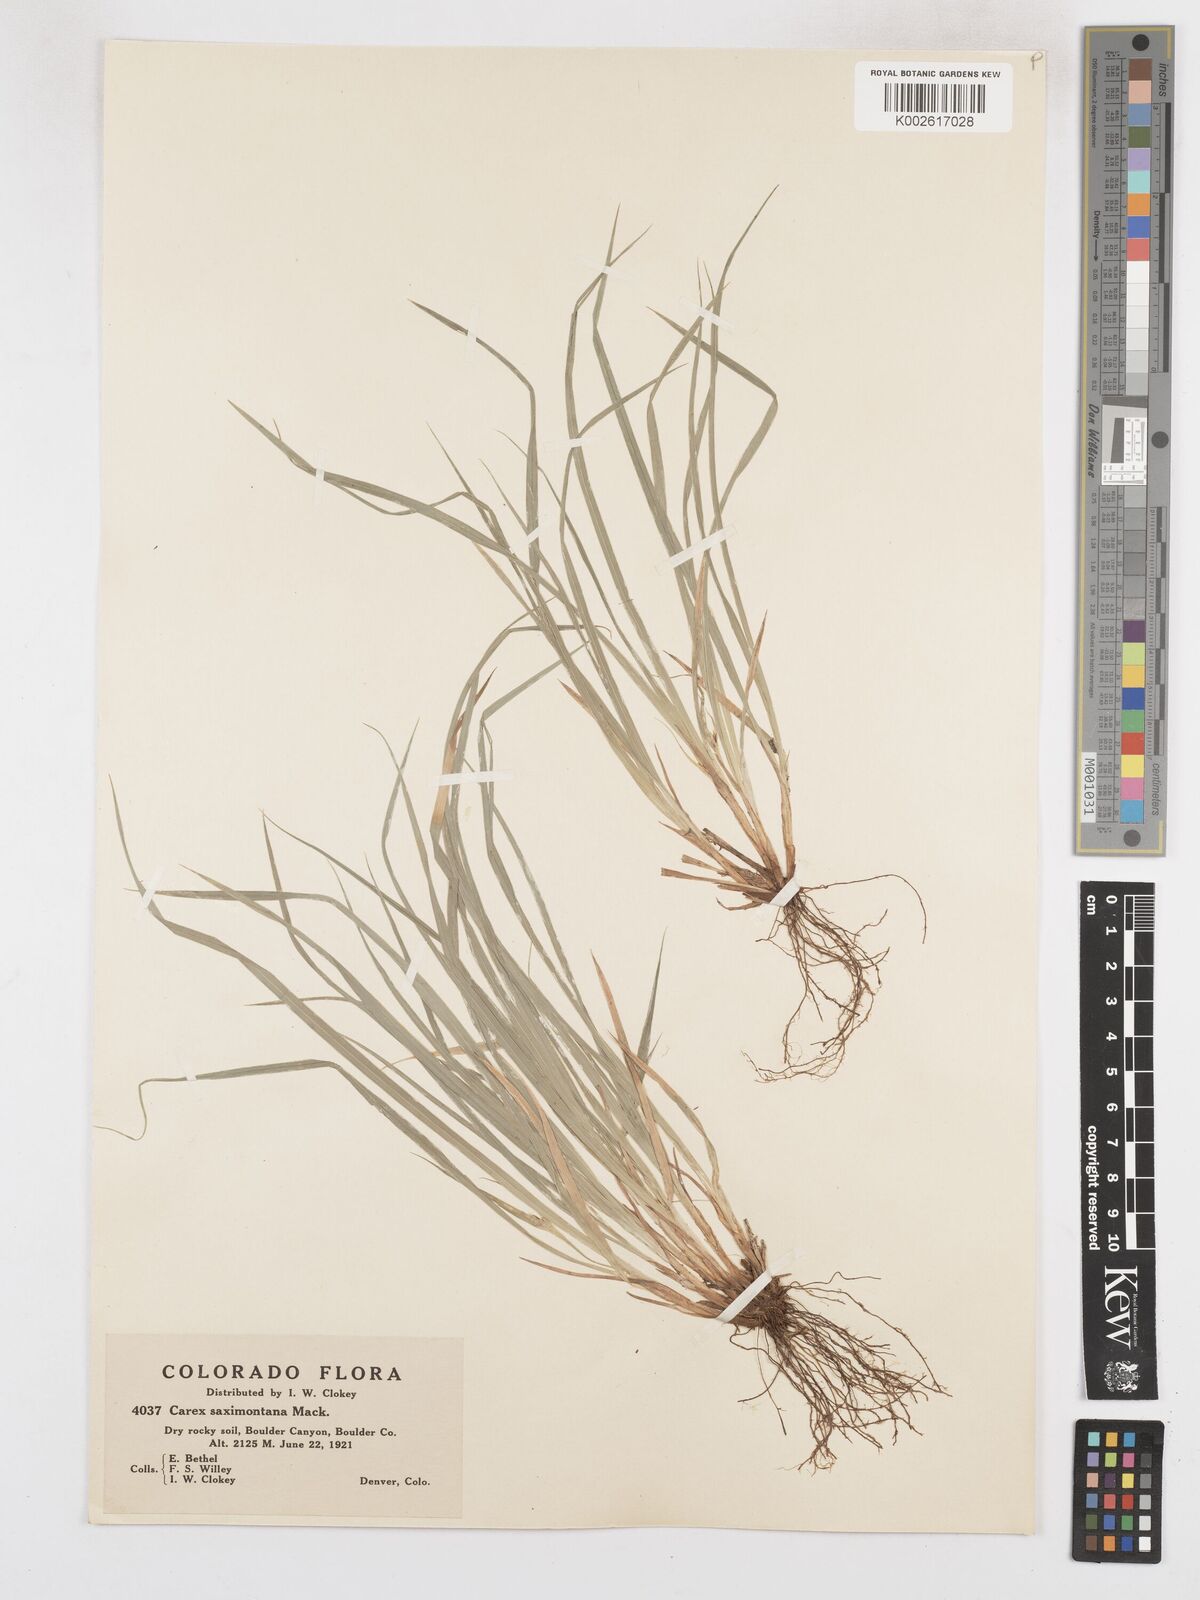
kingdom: Plantae
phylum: Tracheophyta
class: Liliopsida
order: Poales
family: Cyperaceae
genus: Carex
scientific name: Carex saximontana
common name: Rocky mountain sedge
